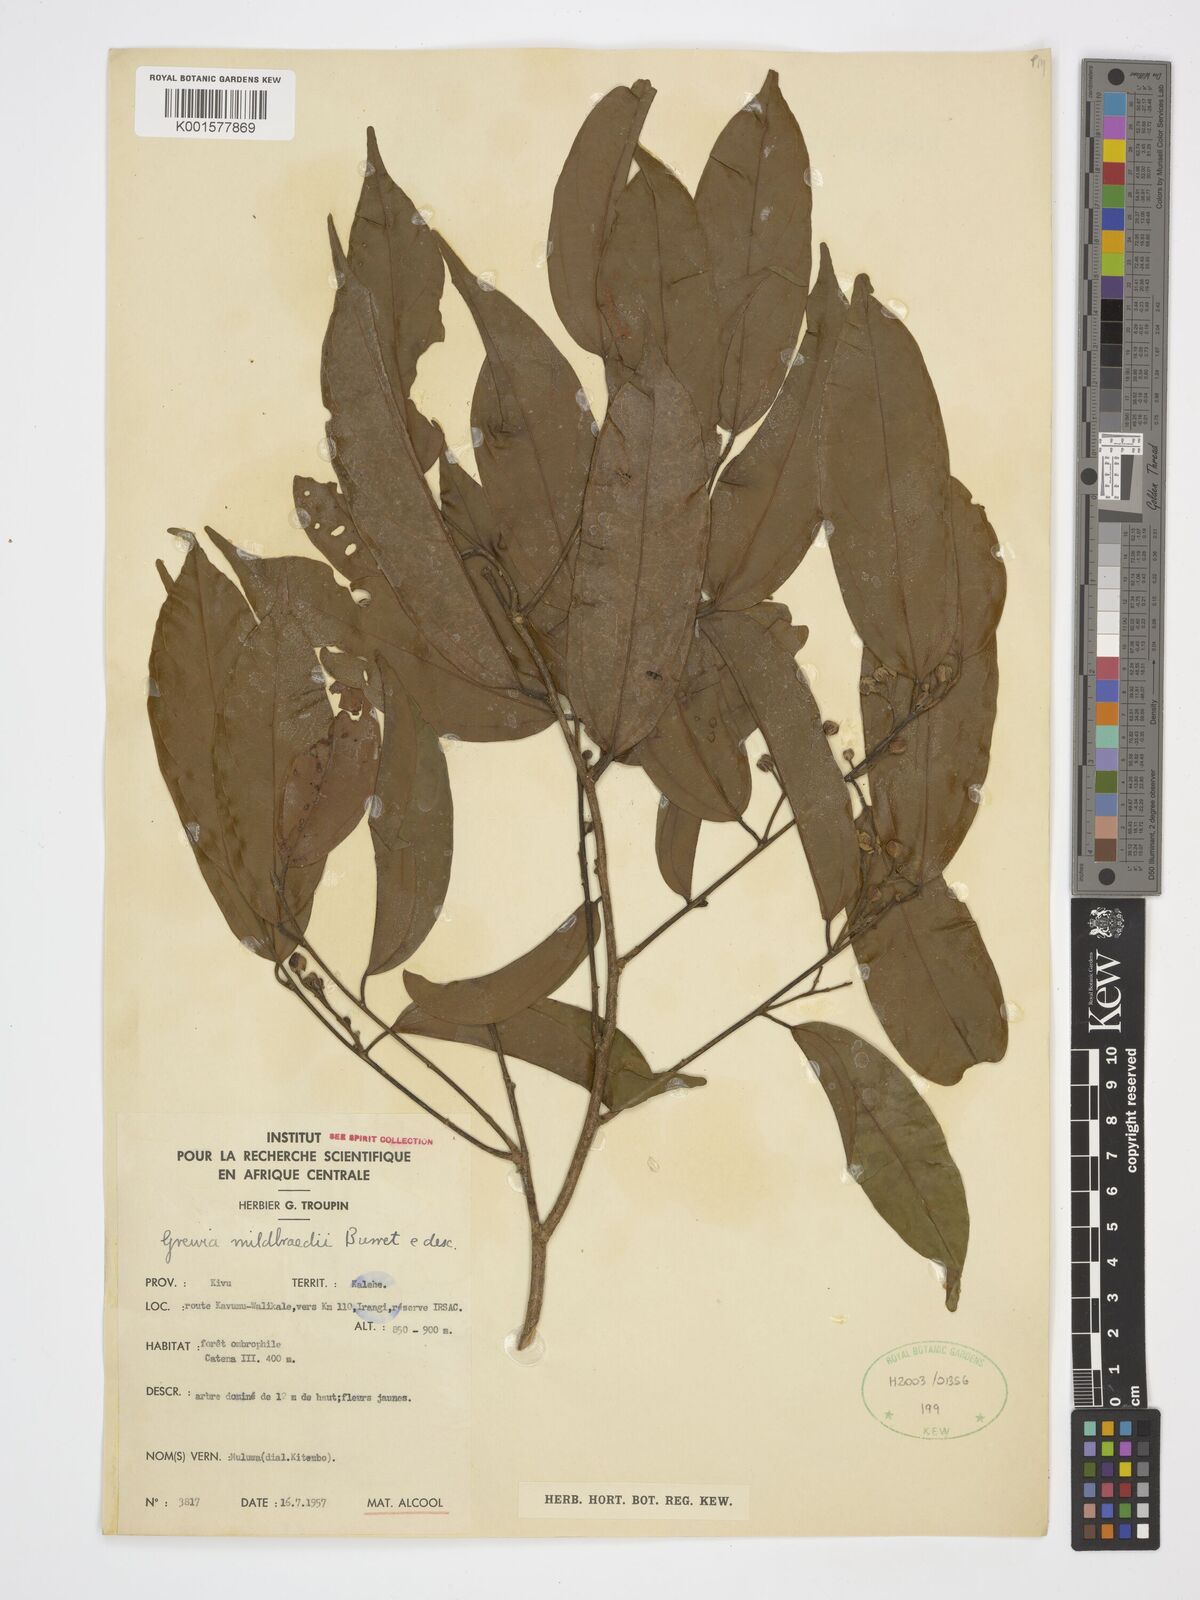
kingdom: Plantae
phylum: Tracheophyta
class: Magnoliopsida
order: Malvales
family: Malvaceae
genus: Microcos
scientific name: Microcos mildbraedii
